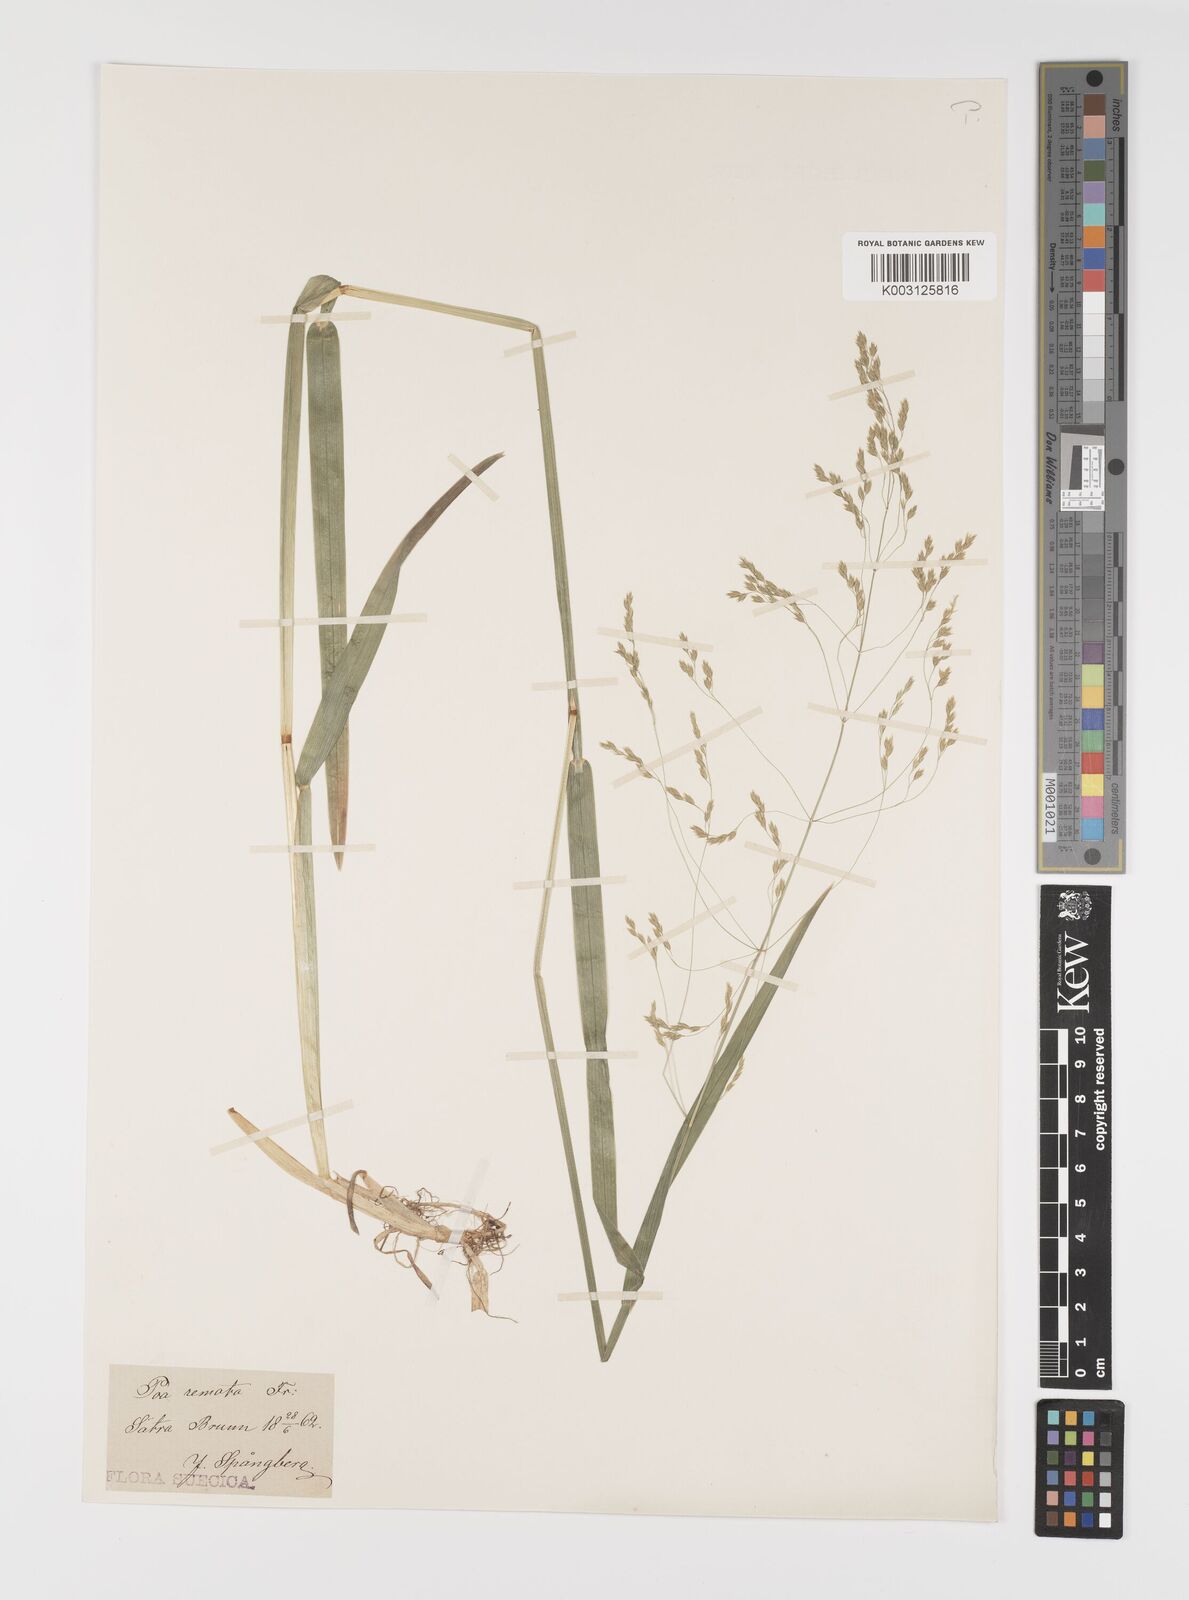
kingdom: Plantae
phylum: Tracheophyta
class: Liliopsida
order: Poales
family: Poaceae
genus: Poa
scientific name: Poa remota
